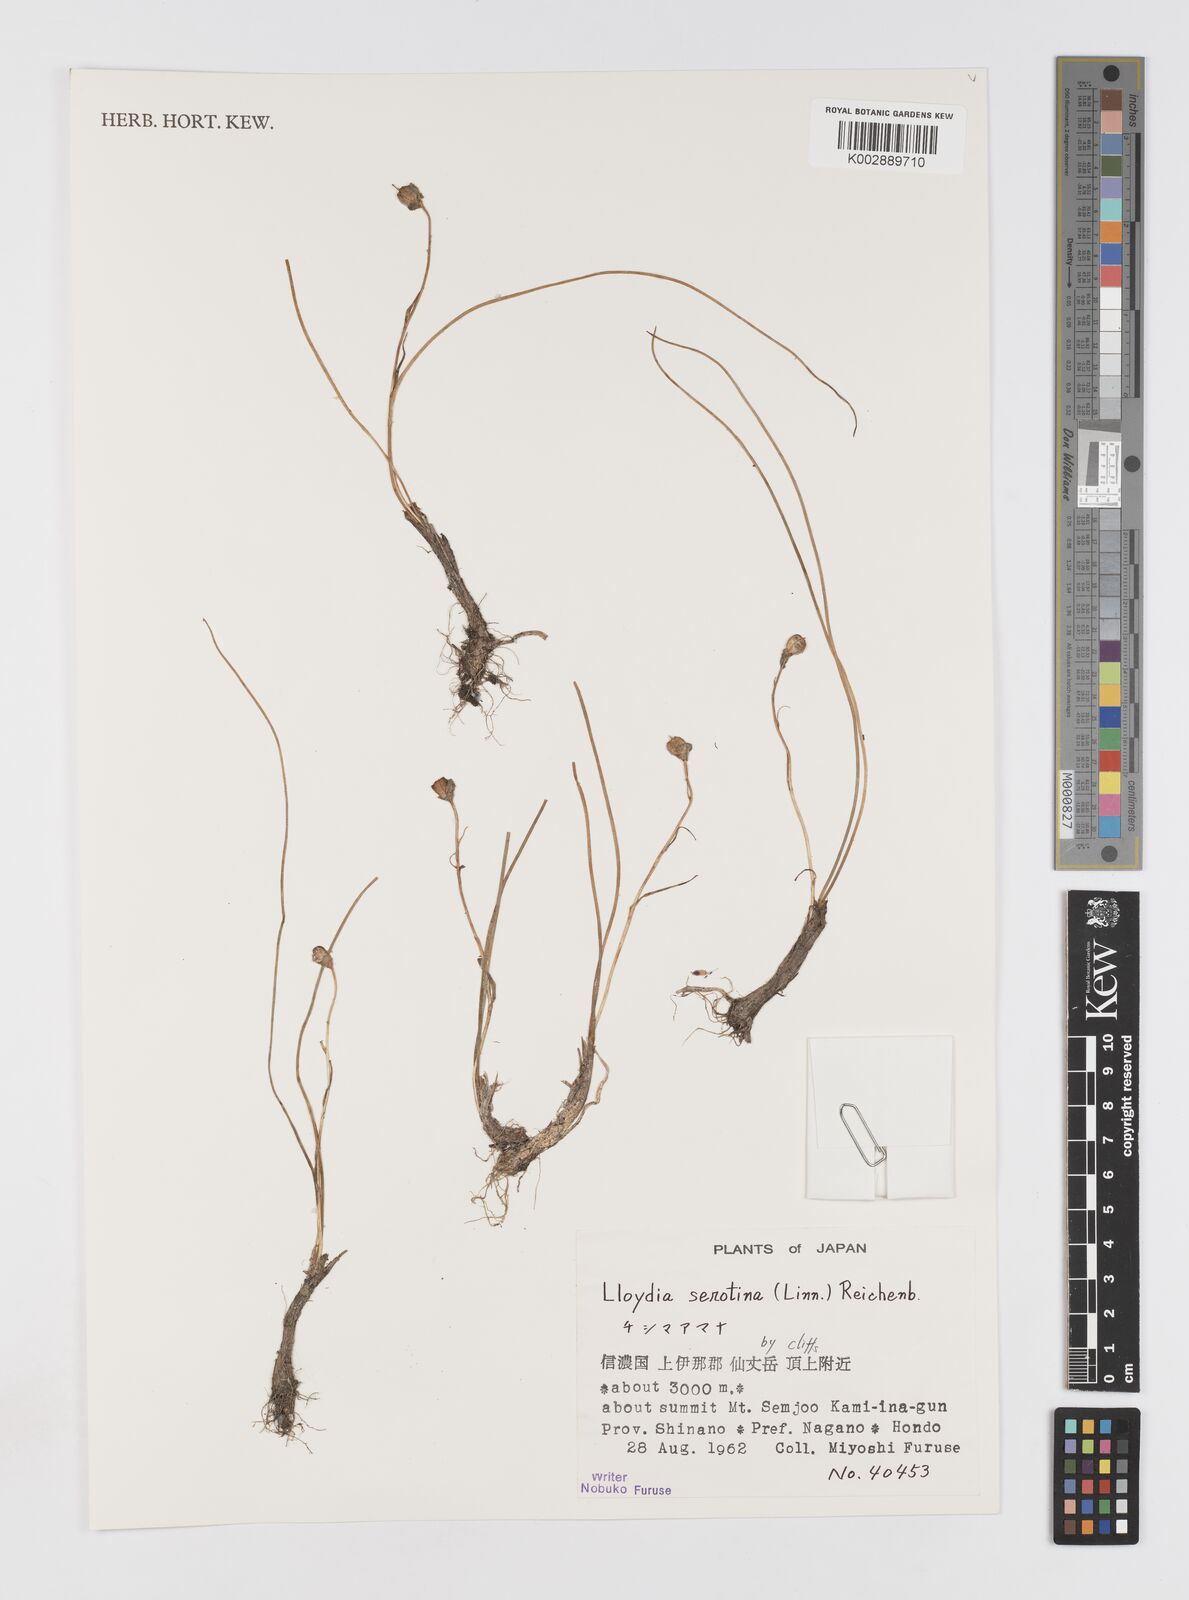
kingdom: Plantae
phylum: Tracheophyta
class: Liliopsida
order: Liliales
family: Liliaceae
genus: Gagea
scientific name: Gagea serotina
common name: Snowdon lily
